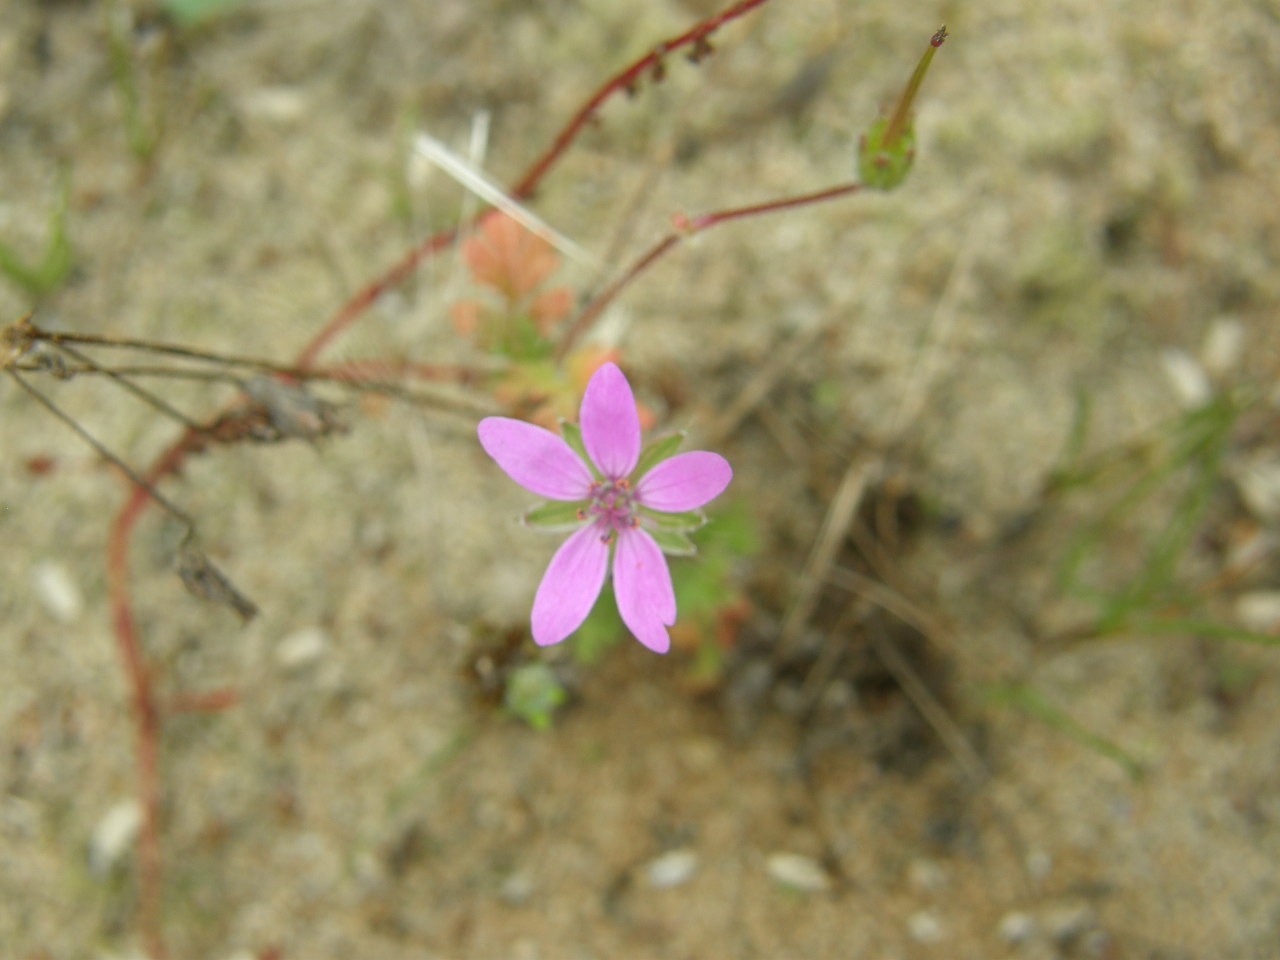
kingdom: Plantae
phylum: Tracheophyta
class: Magnoliopsida
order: Geraniales
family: Geraniaceae
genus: Erodium
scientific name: Erodium cicutarium
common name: Hejrenæb
